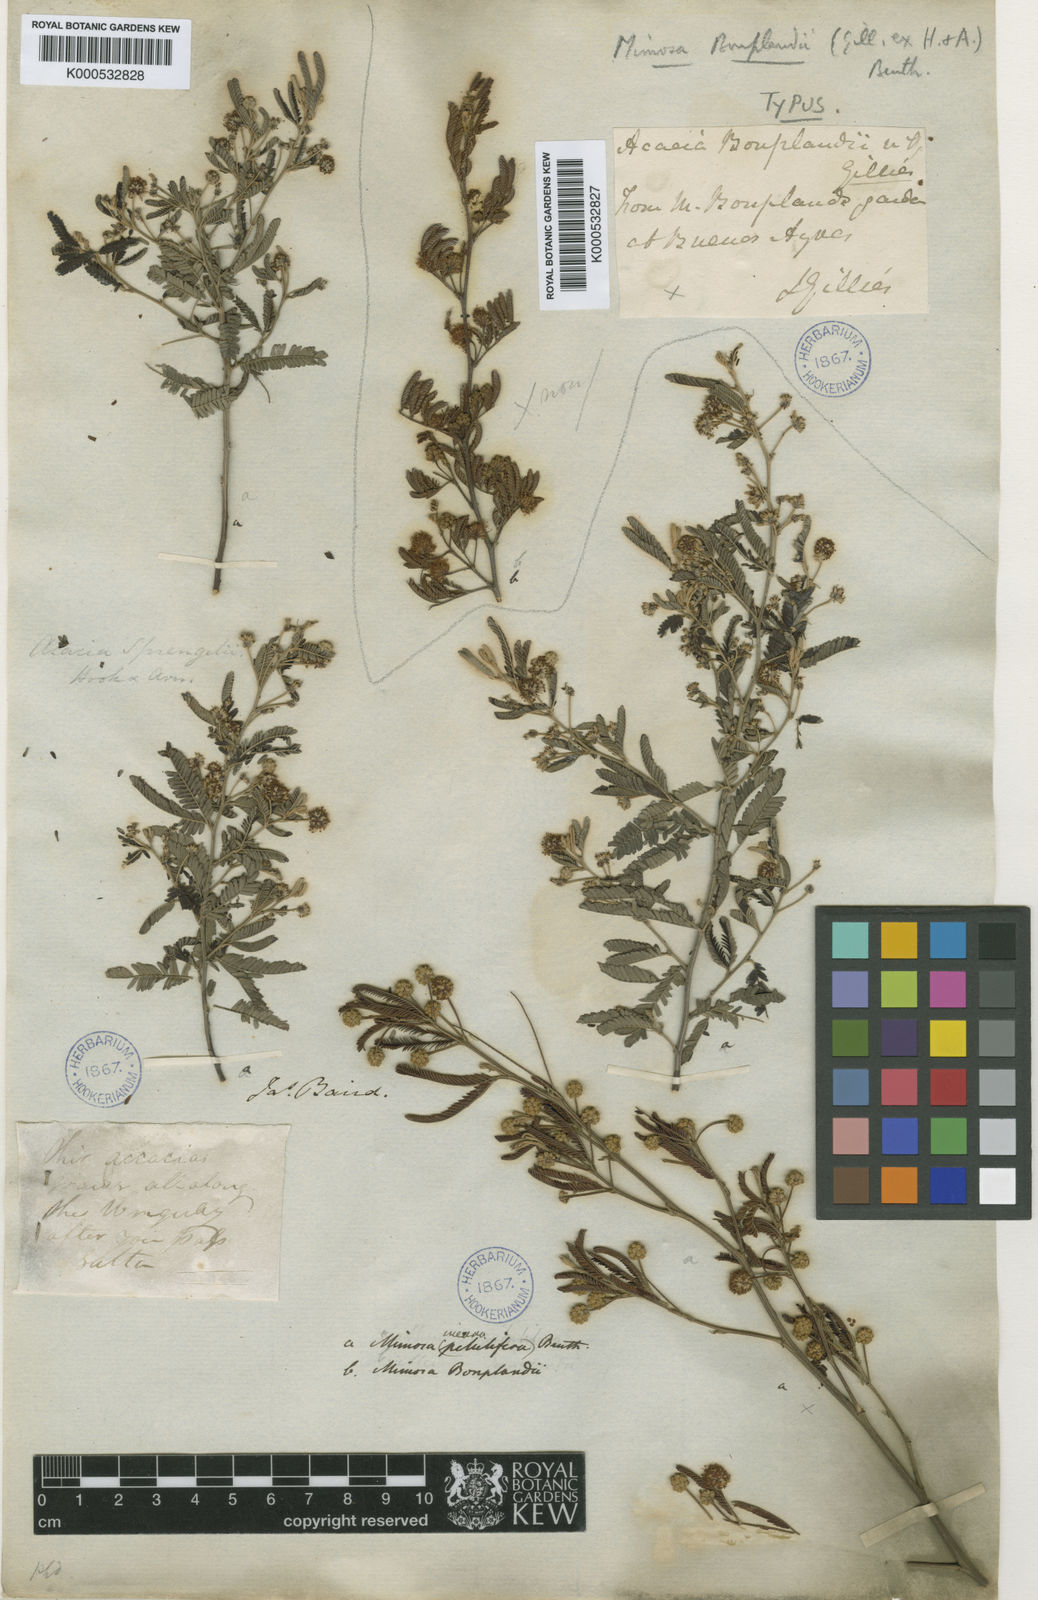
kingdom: Plantae
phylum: Tracheophyta
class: Magnoliopsida
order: Fabales
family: Fabaceae
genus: Mimosa
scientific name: Mimosa bonplandii
